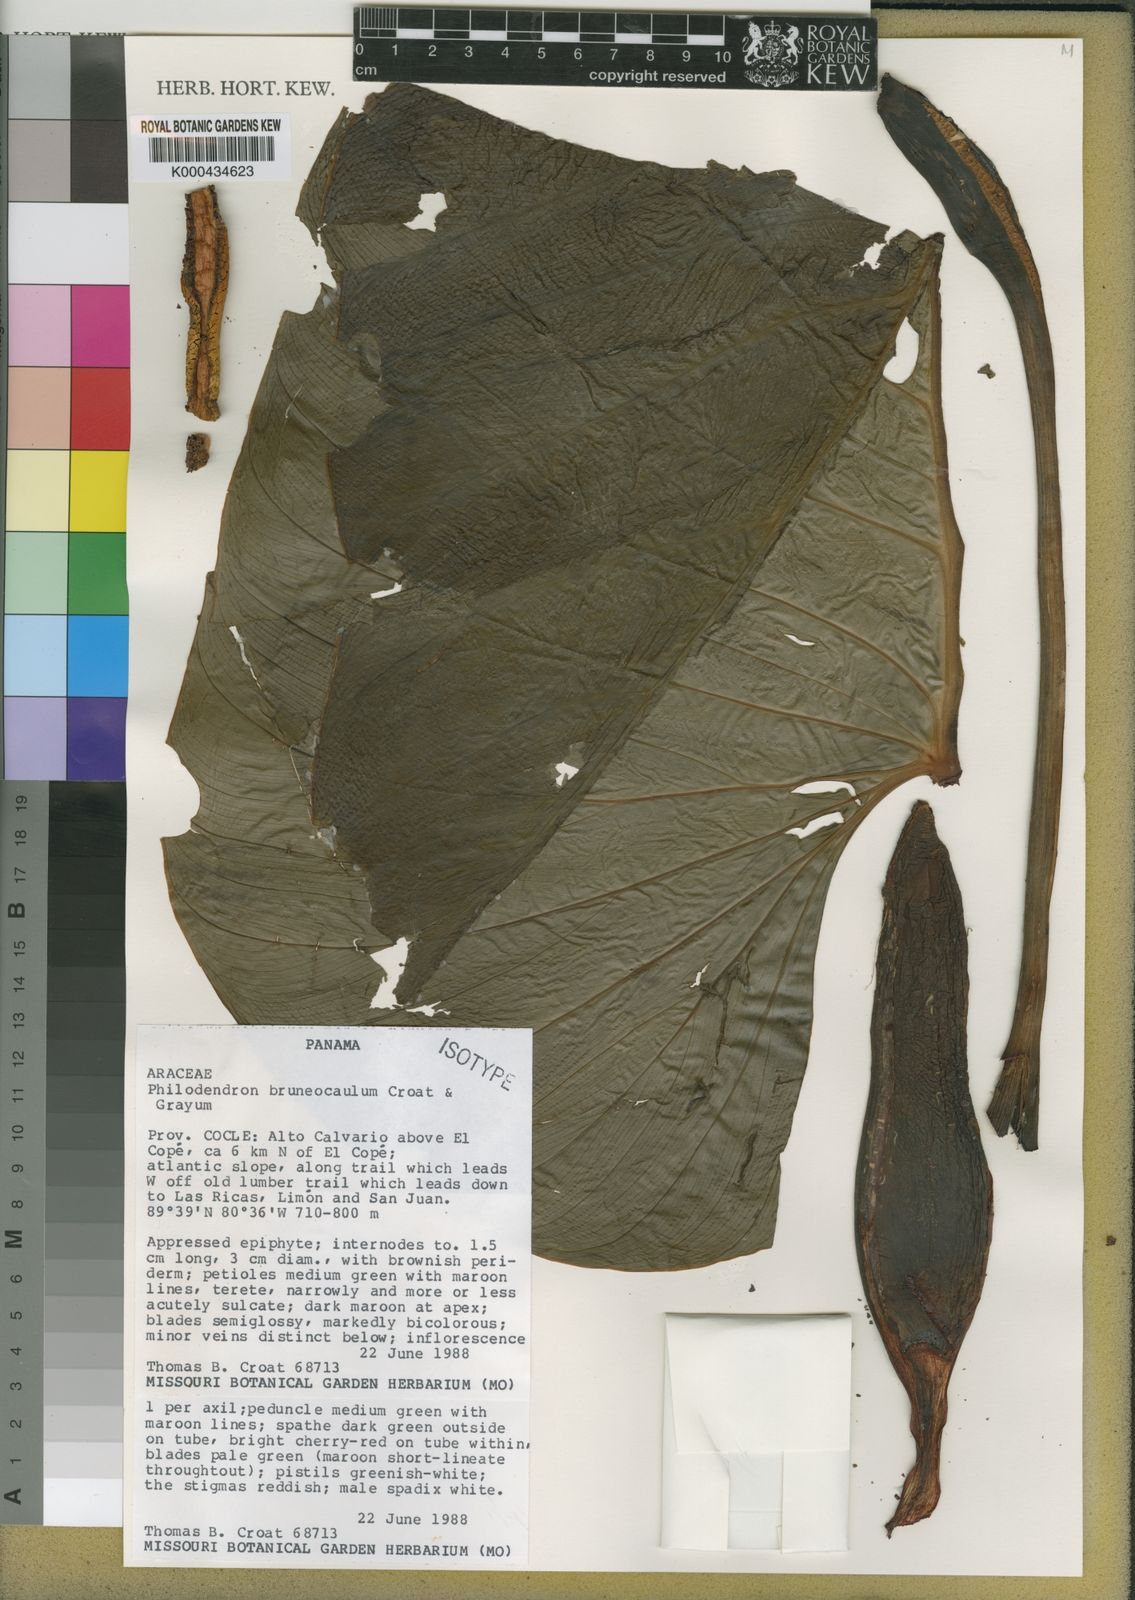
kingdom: Plantae
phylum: Tracheophyta
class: Liliopsida
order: Alismatales
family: Araceae
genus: Philodendron
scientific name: Philodendron
